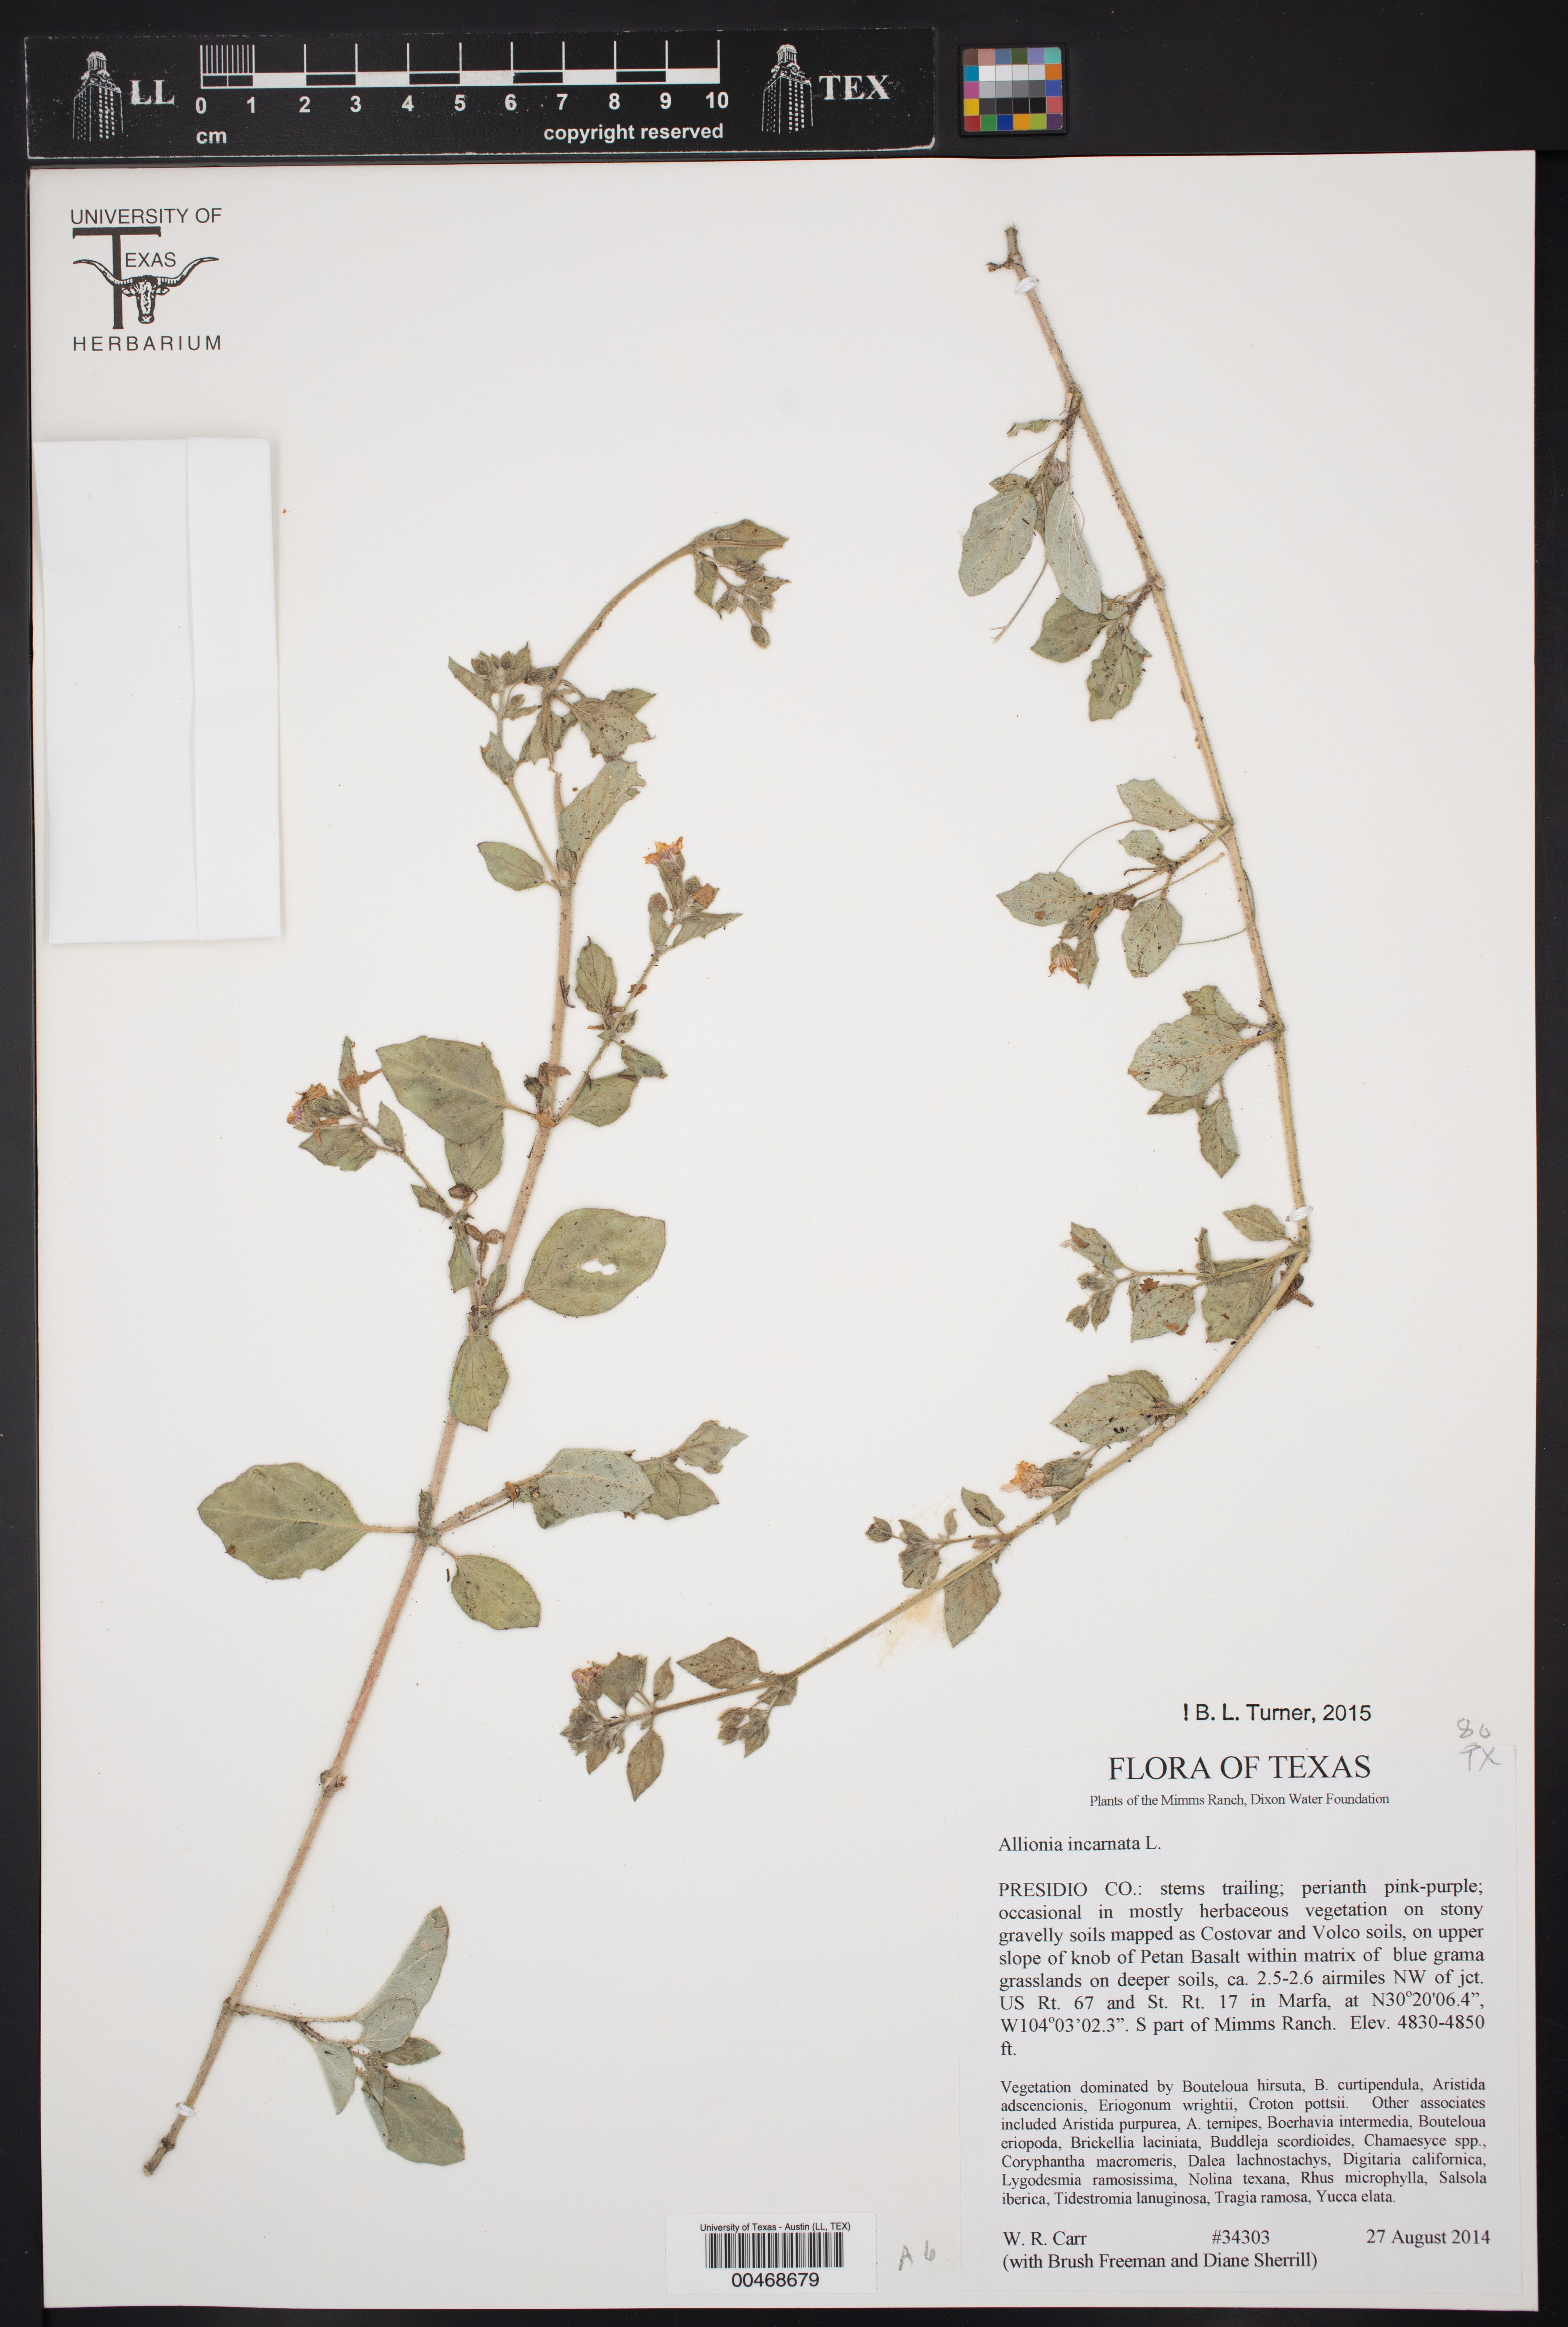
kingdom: Plantae
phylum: Tracheophyta
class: Magnoliopsida
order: Caryophyllales
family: Nyctaginaceae
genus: Allionia
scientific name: Allionia incarnata
